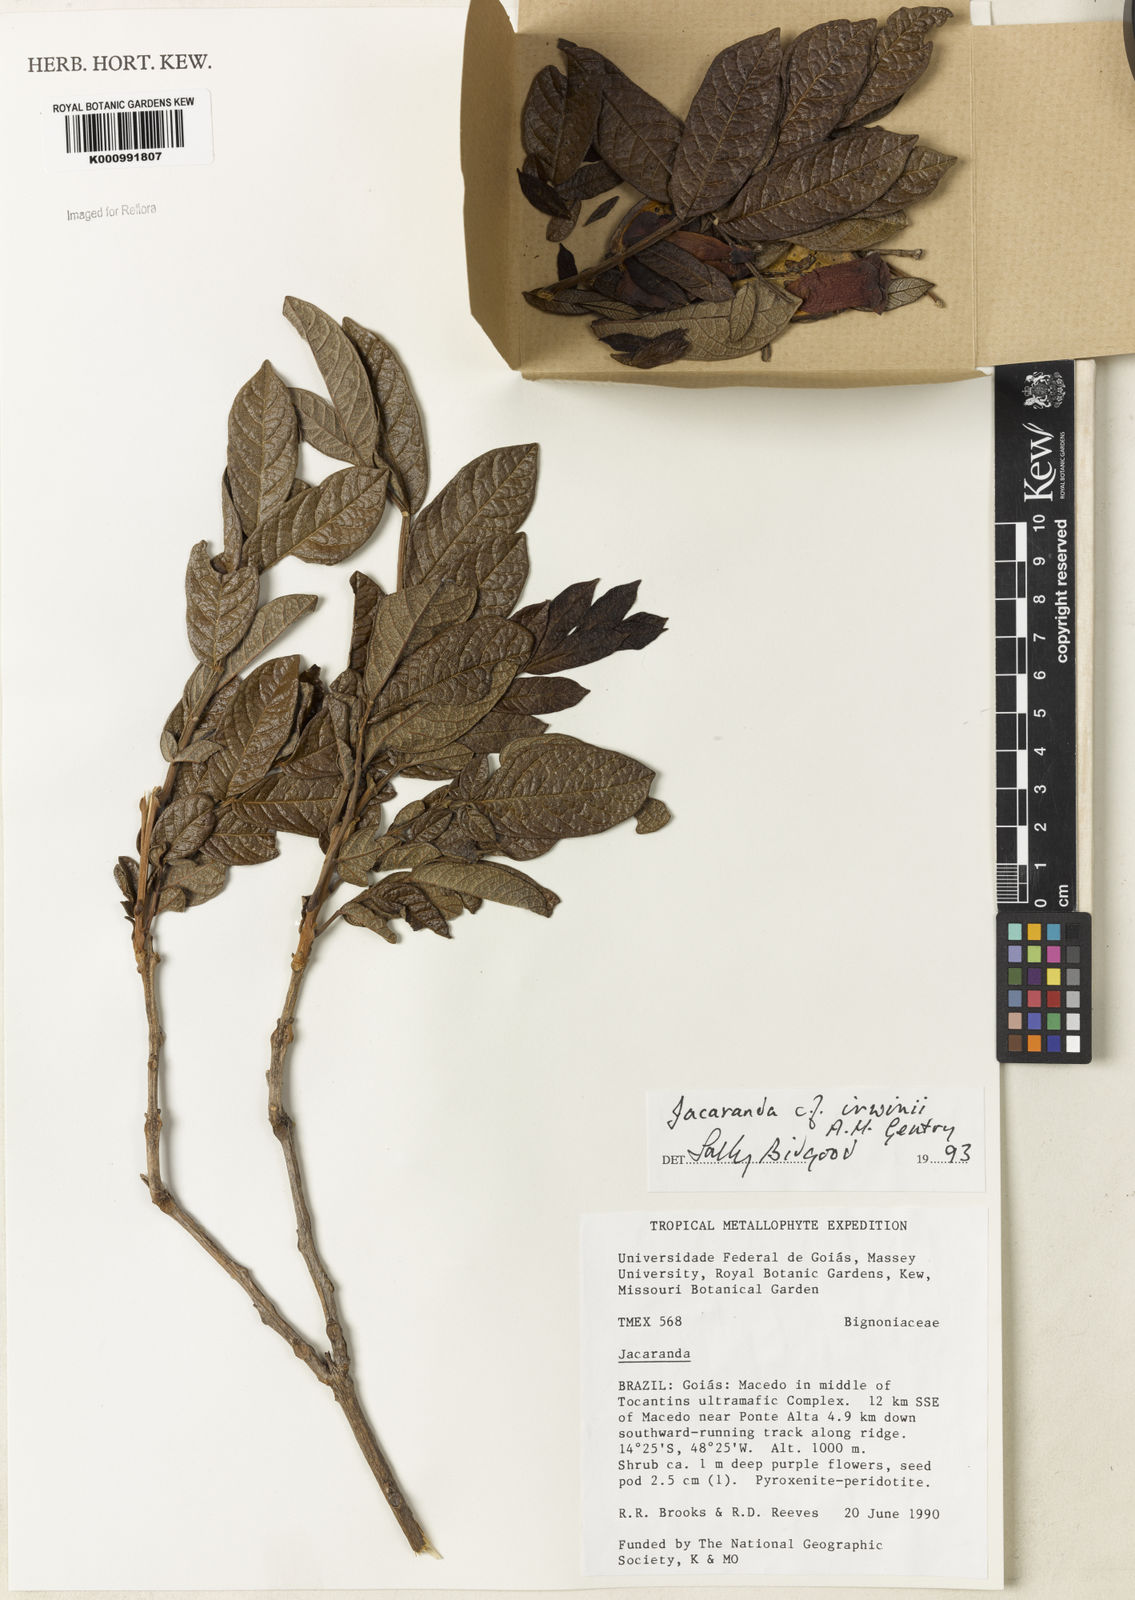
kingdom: Plantae
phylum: Tracheophyta
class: Magnoliopsida
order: Lamiales
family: Bignoniaceae
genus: Jacaranda
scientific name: Jacaranda irwinii
